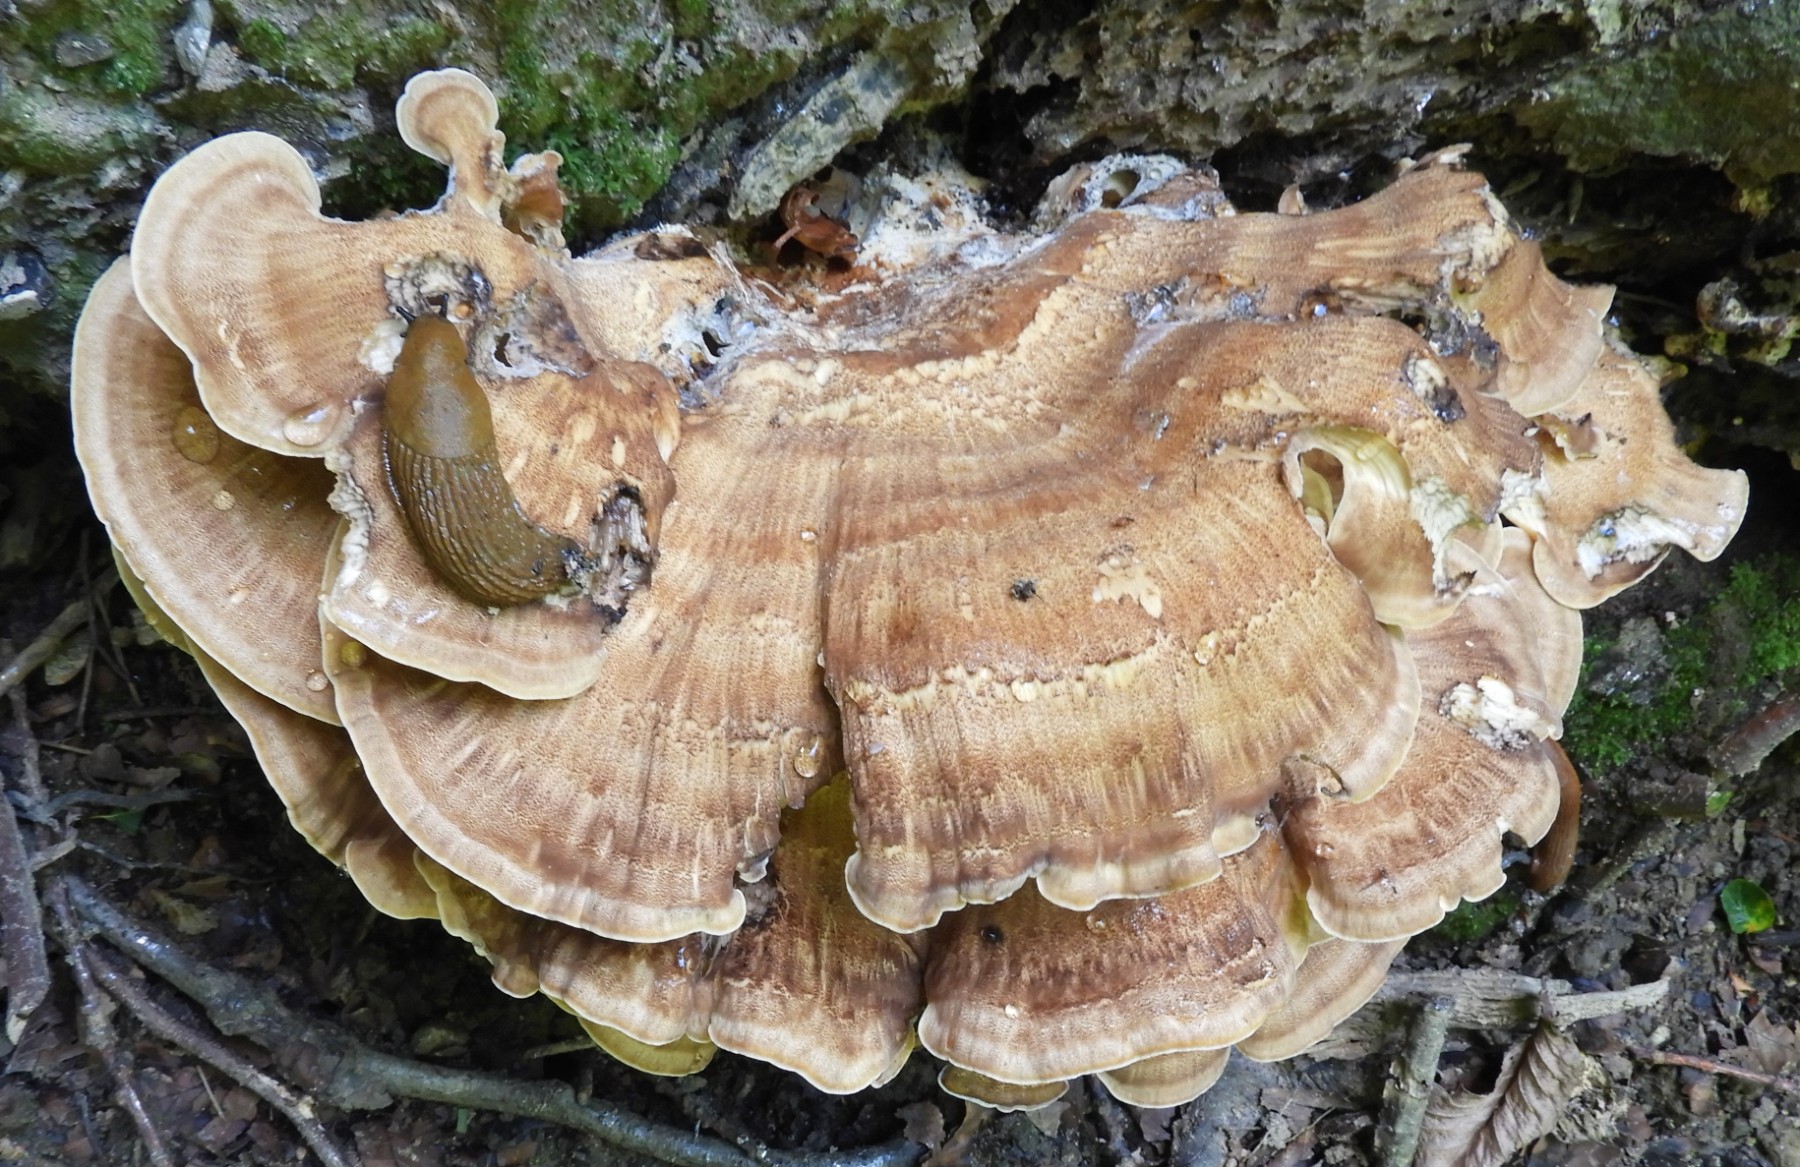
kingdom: Fungi
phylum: Basidiomycota
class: Agaricomycetes
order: Polyporales
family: Meripilaceae
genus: Meripilus
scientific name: Meripilus giganteus
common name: kæmpeporesvamp
